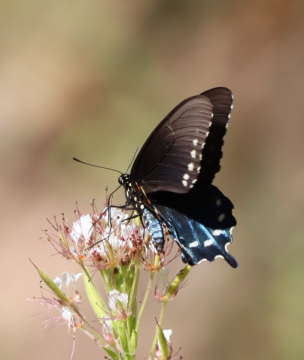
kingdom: Animalia
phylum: Arthropoda
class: Insecta
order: Lepidoptera
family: Papilionidae
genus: Battus
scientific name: Battus philenor
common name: Pipevine Swallowtail
